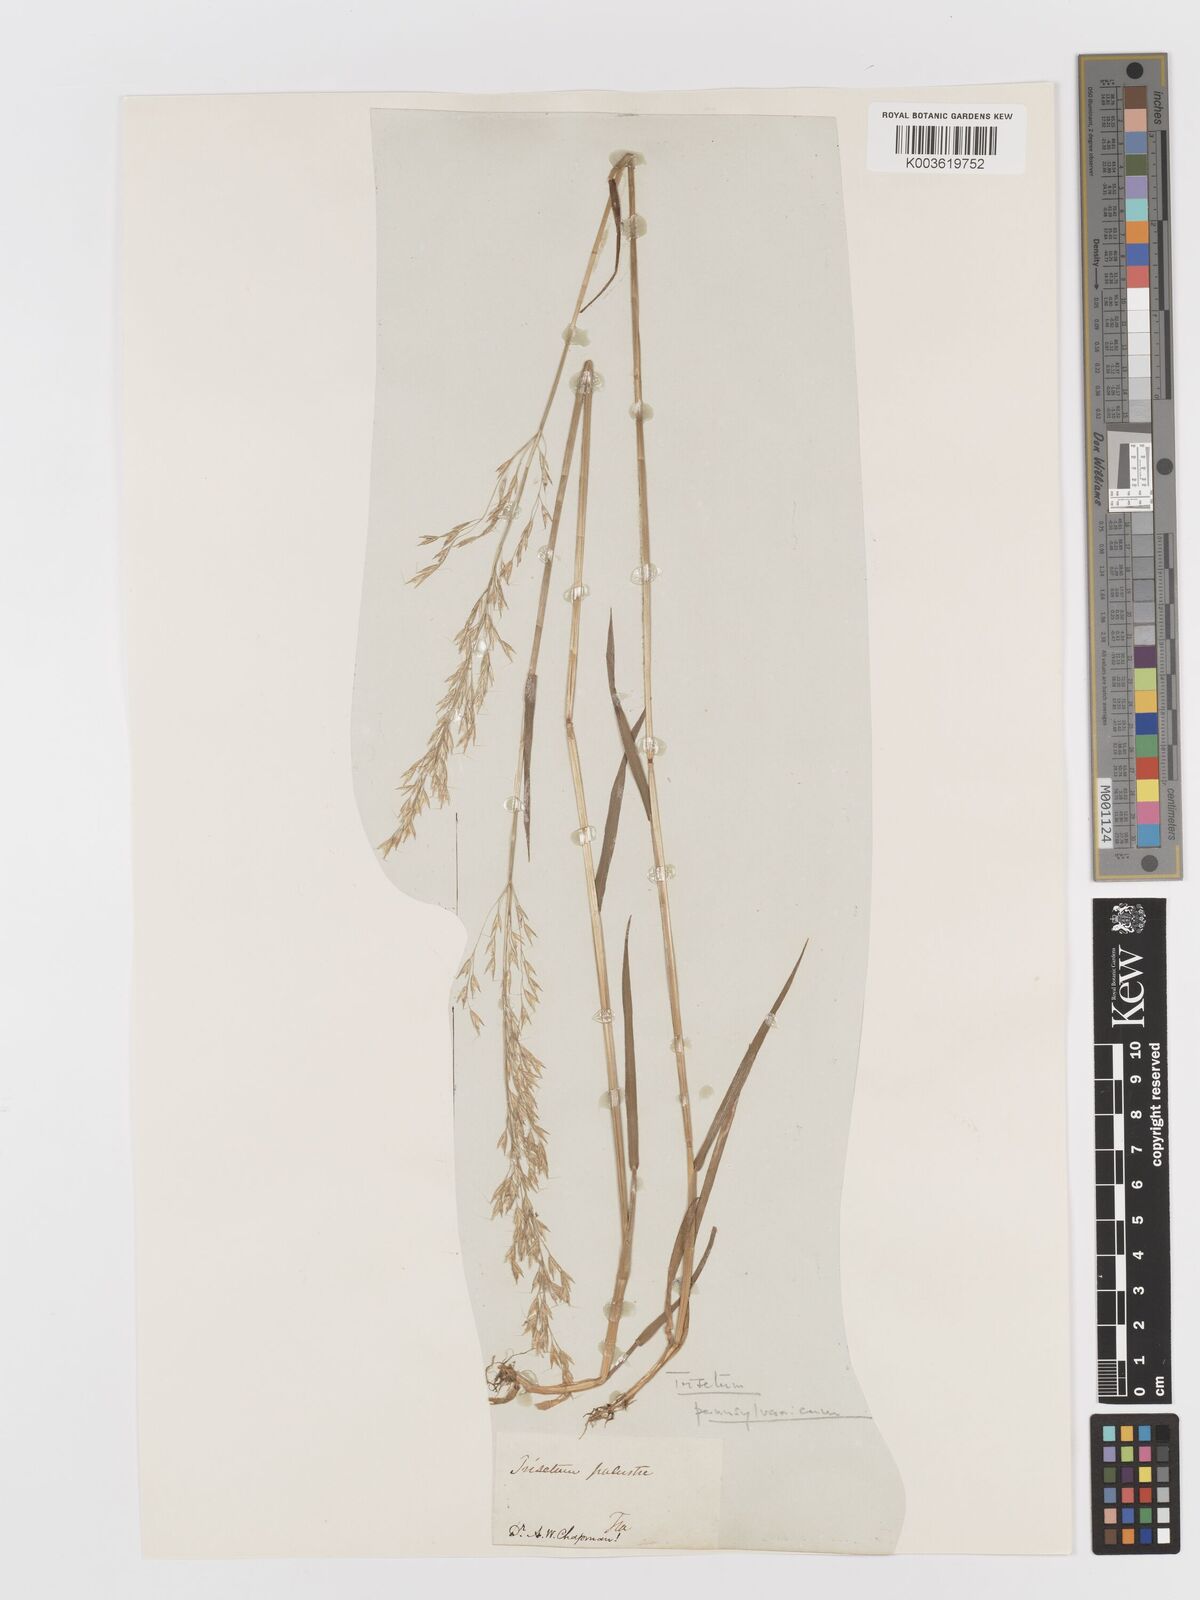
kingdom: Plantae
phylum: Tracheophyta
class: Liliopsida
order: Poales
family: Poaceae
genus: Sphenopholis
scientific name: Sphenopholis pensylvanica
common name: Swamp oats
